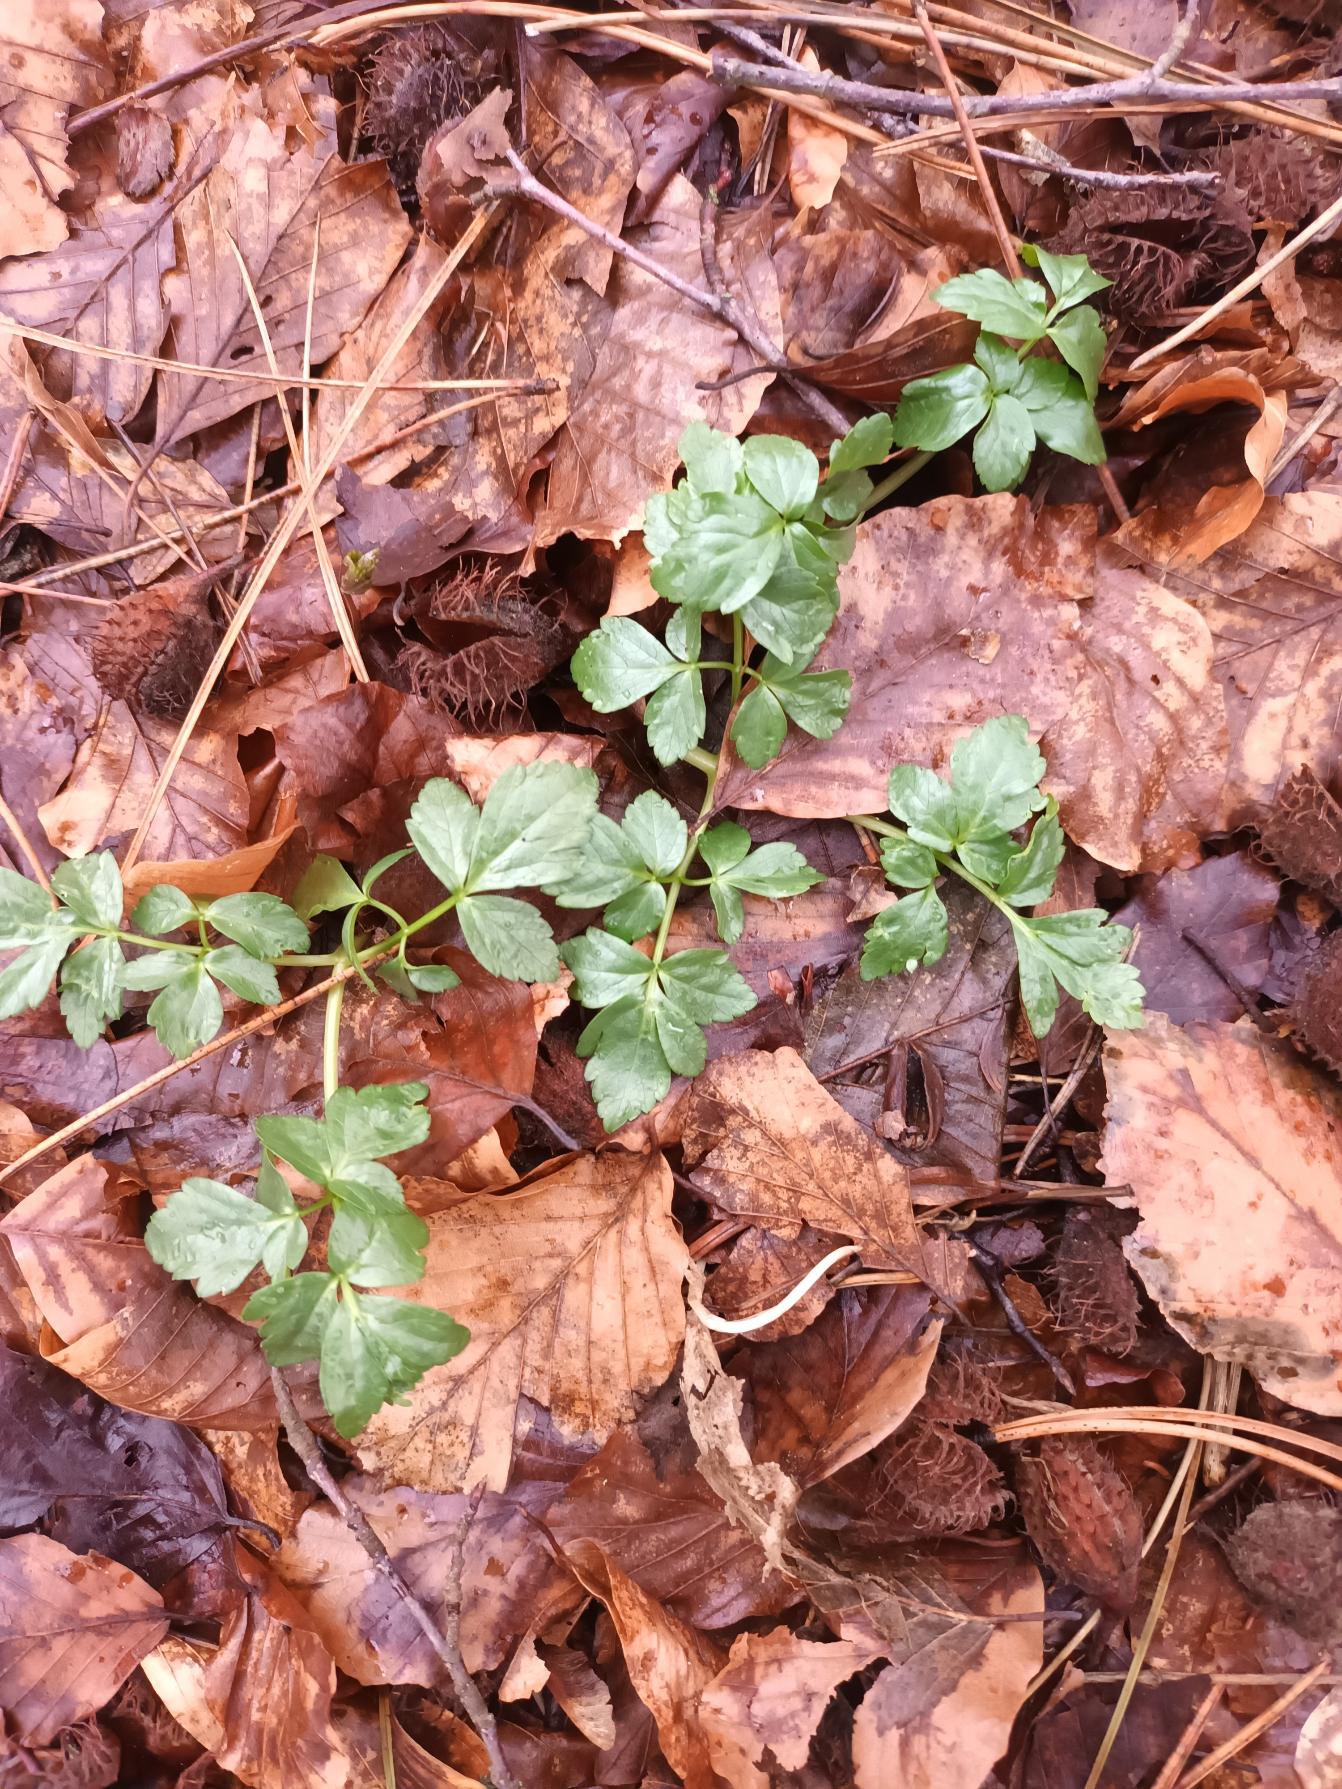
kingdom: Plantae
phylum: Tracheophyta
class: Magnoliopsida
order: Apiales
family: Apiaceae
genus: Smyrnium
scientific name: Smyrnium perfoliatum
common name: Lundgylden
